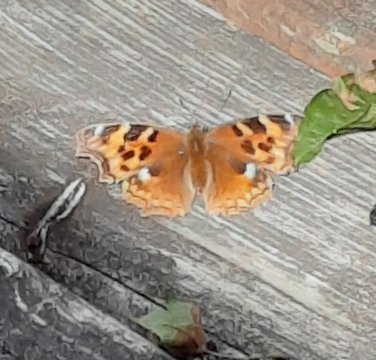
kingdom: Animalia
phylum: Arthropoda
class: Insecta
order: Lepidoptera
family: Nymphalidae
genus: Polygonia
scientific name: Polygonia vaualbum
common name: Compton Tortoiseshell
